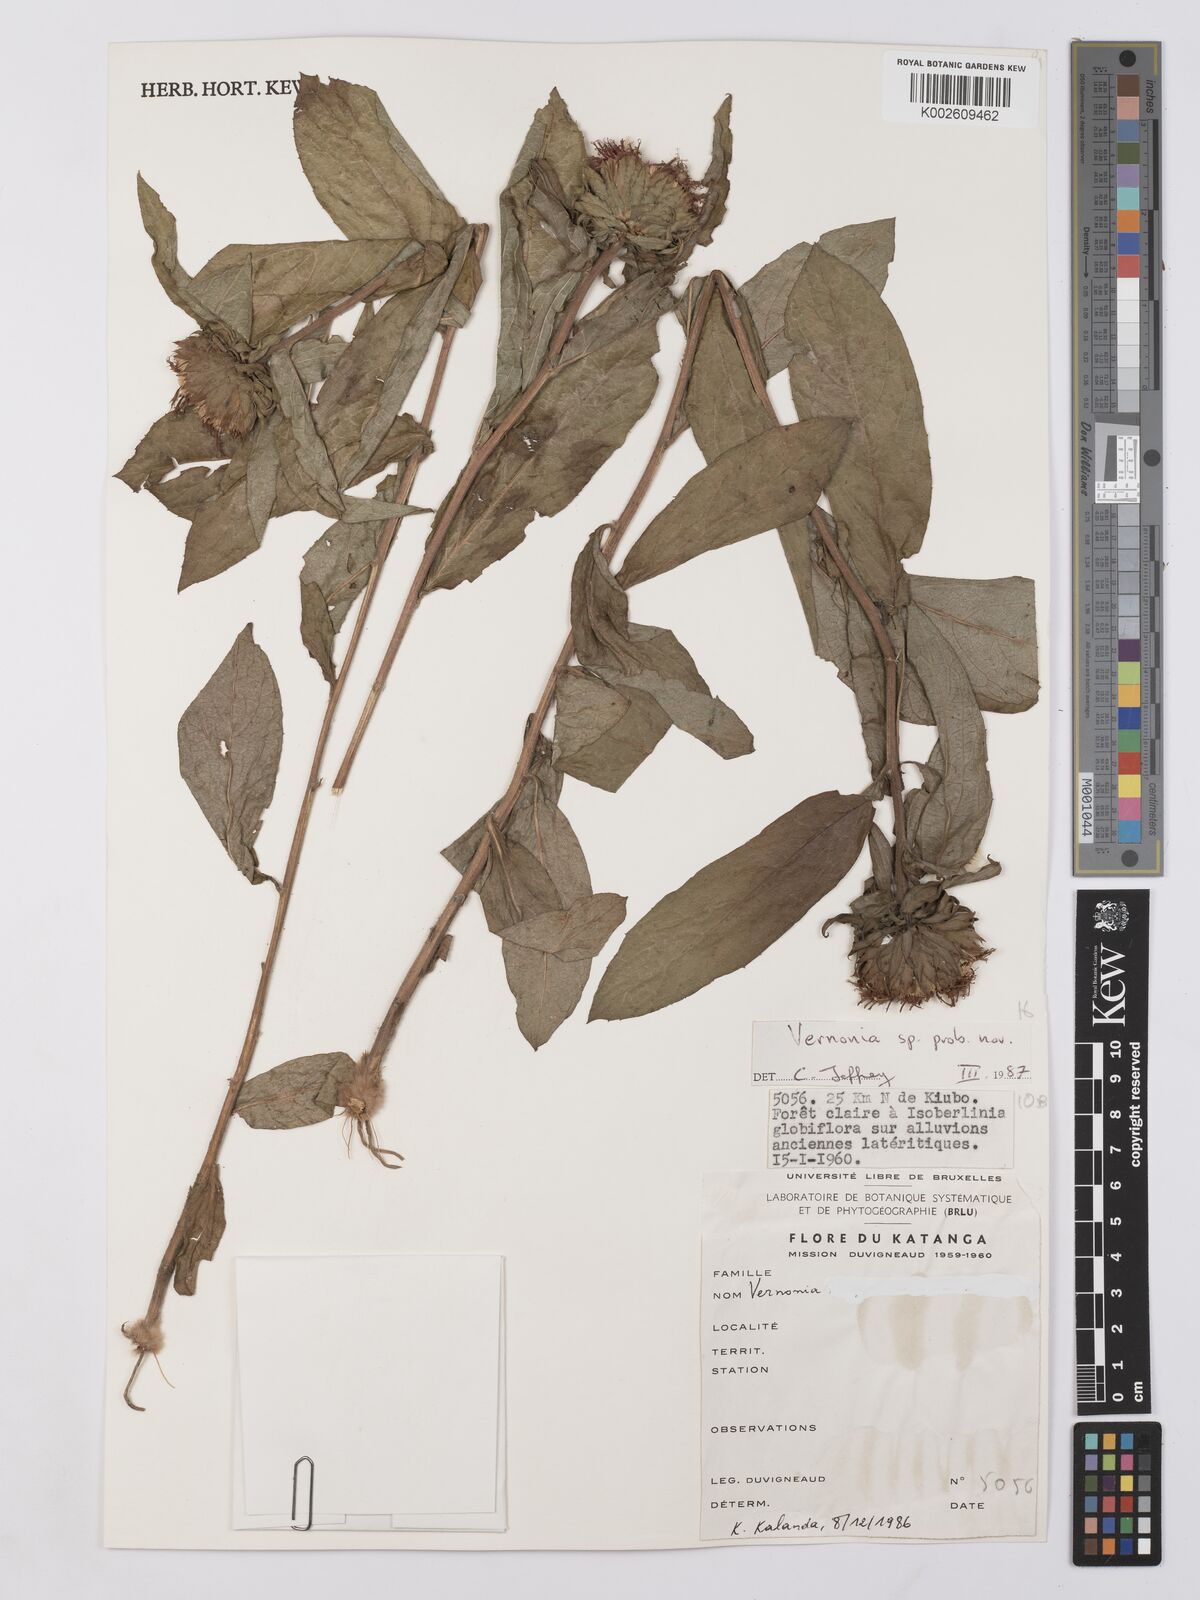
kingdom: Plantae
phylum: Tracheophyta
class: Magnoliopsida
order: Asterales
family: Asteraceae
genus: Vernonia
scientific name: Vernonia
